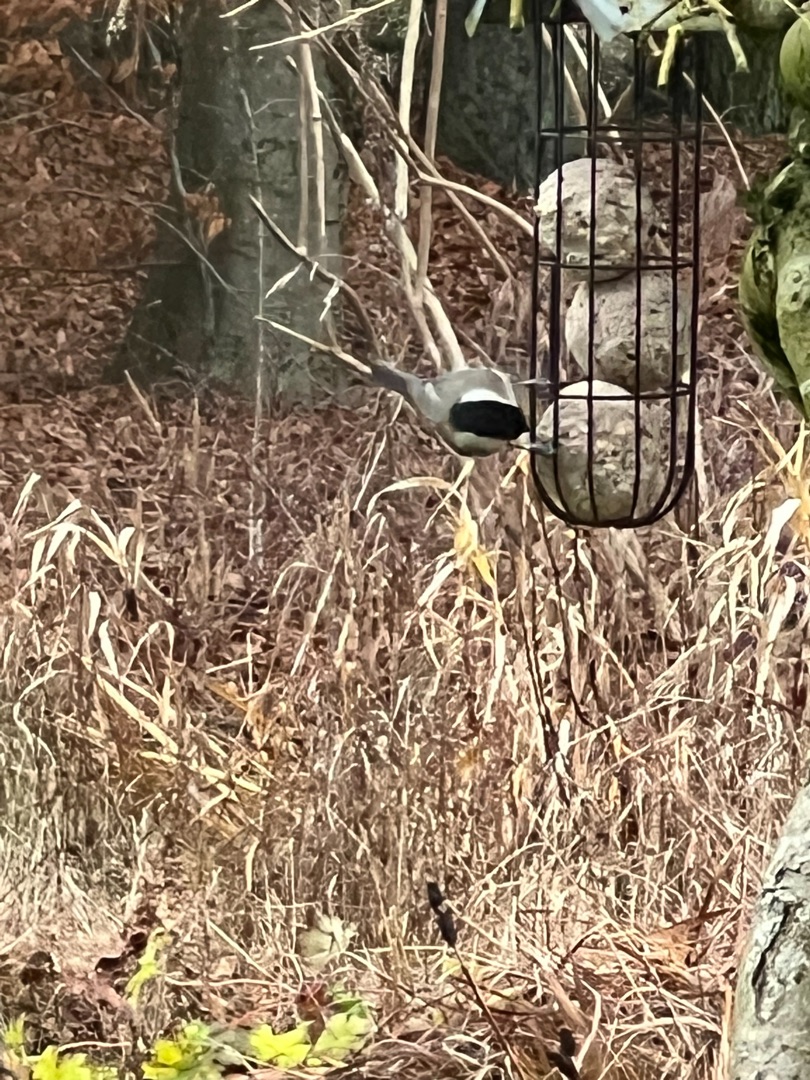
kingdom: Animalia
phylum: Chordata
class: Aves
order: Passeriformes
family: Paridae
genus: Poecile
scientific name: Poecile palustris
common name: Sumpmejse
